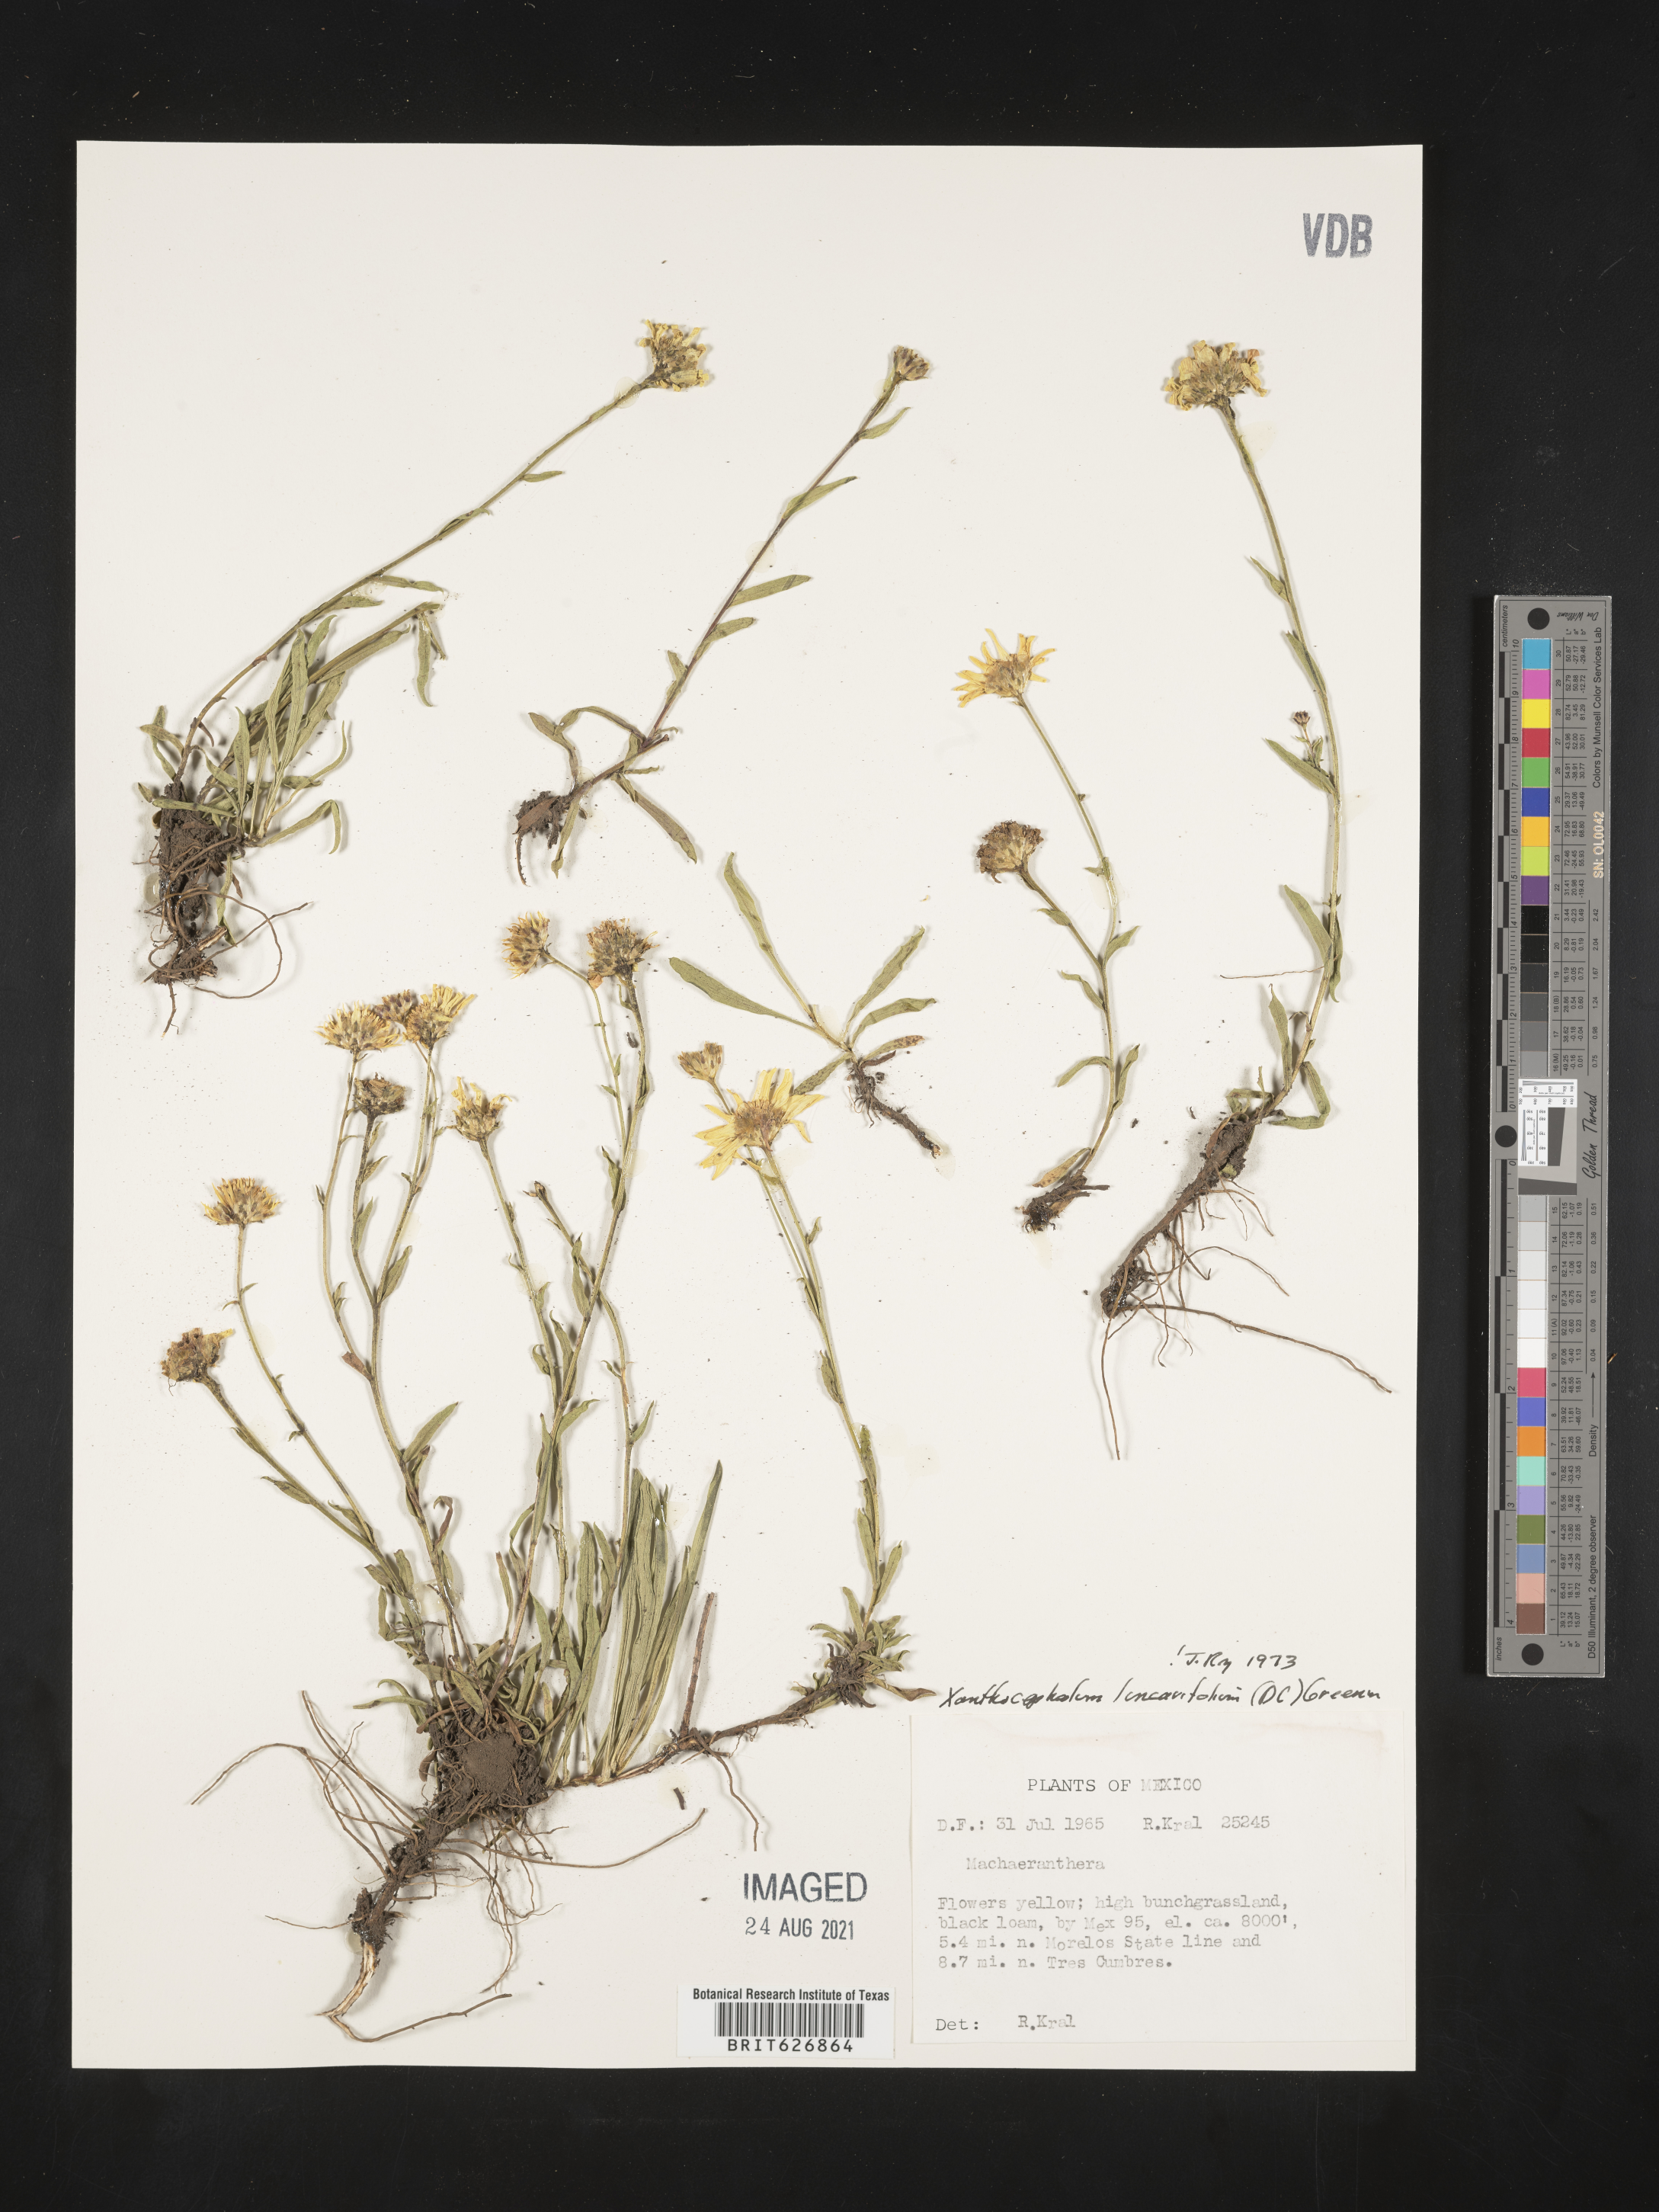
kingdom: Plantae
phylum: Tracheophyta
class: Magnoliopsida
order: Asterales
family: Asteraceae
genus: Xanthocephalum
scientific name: Xanthocephalum
